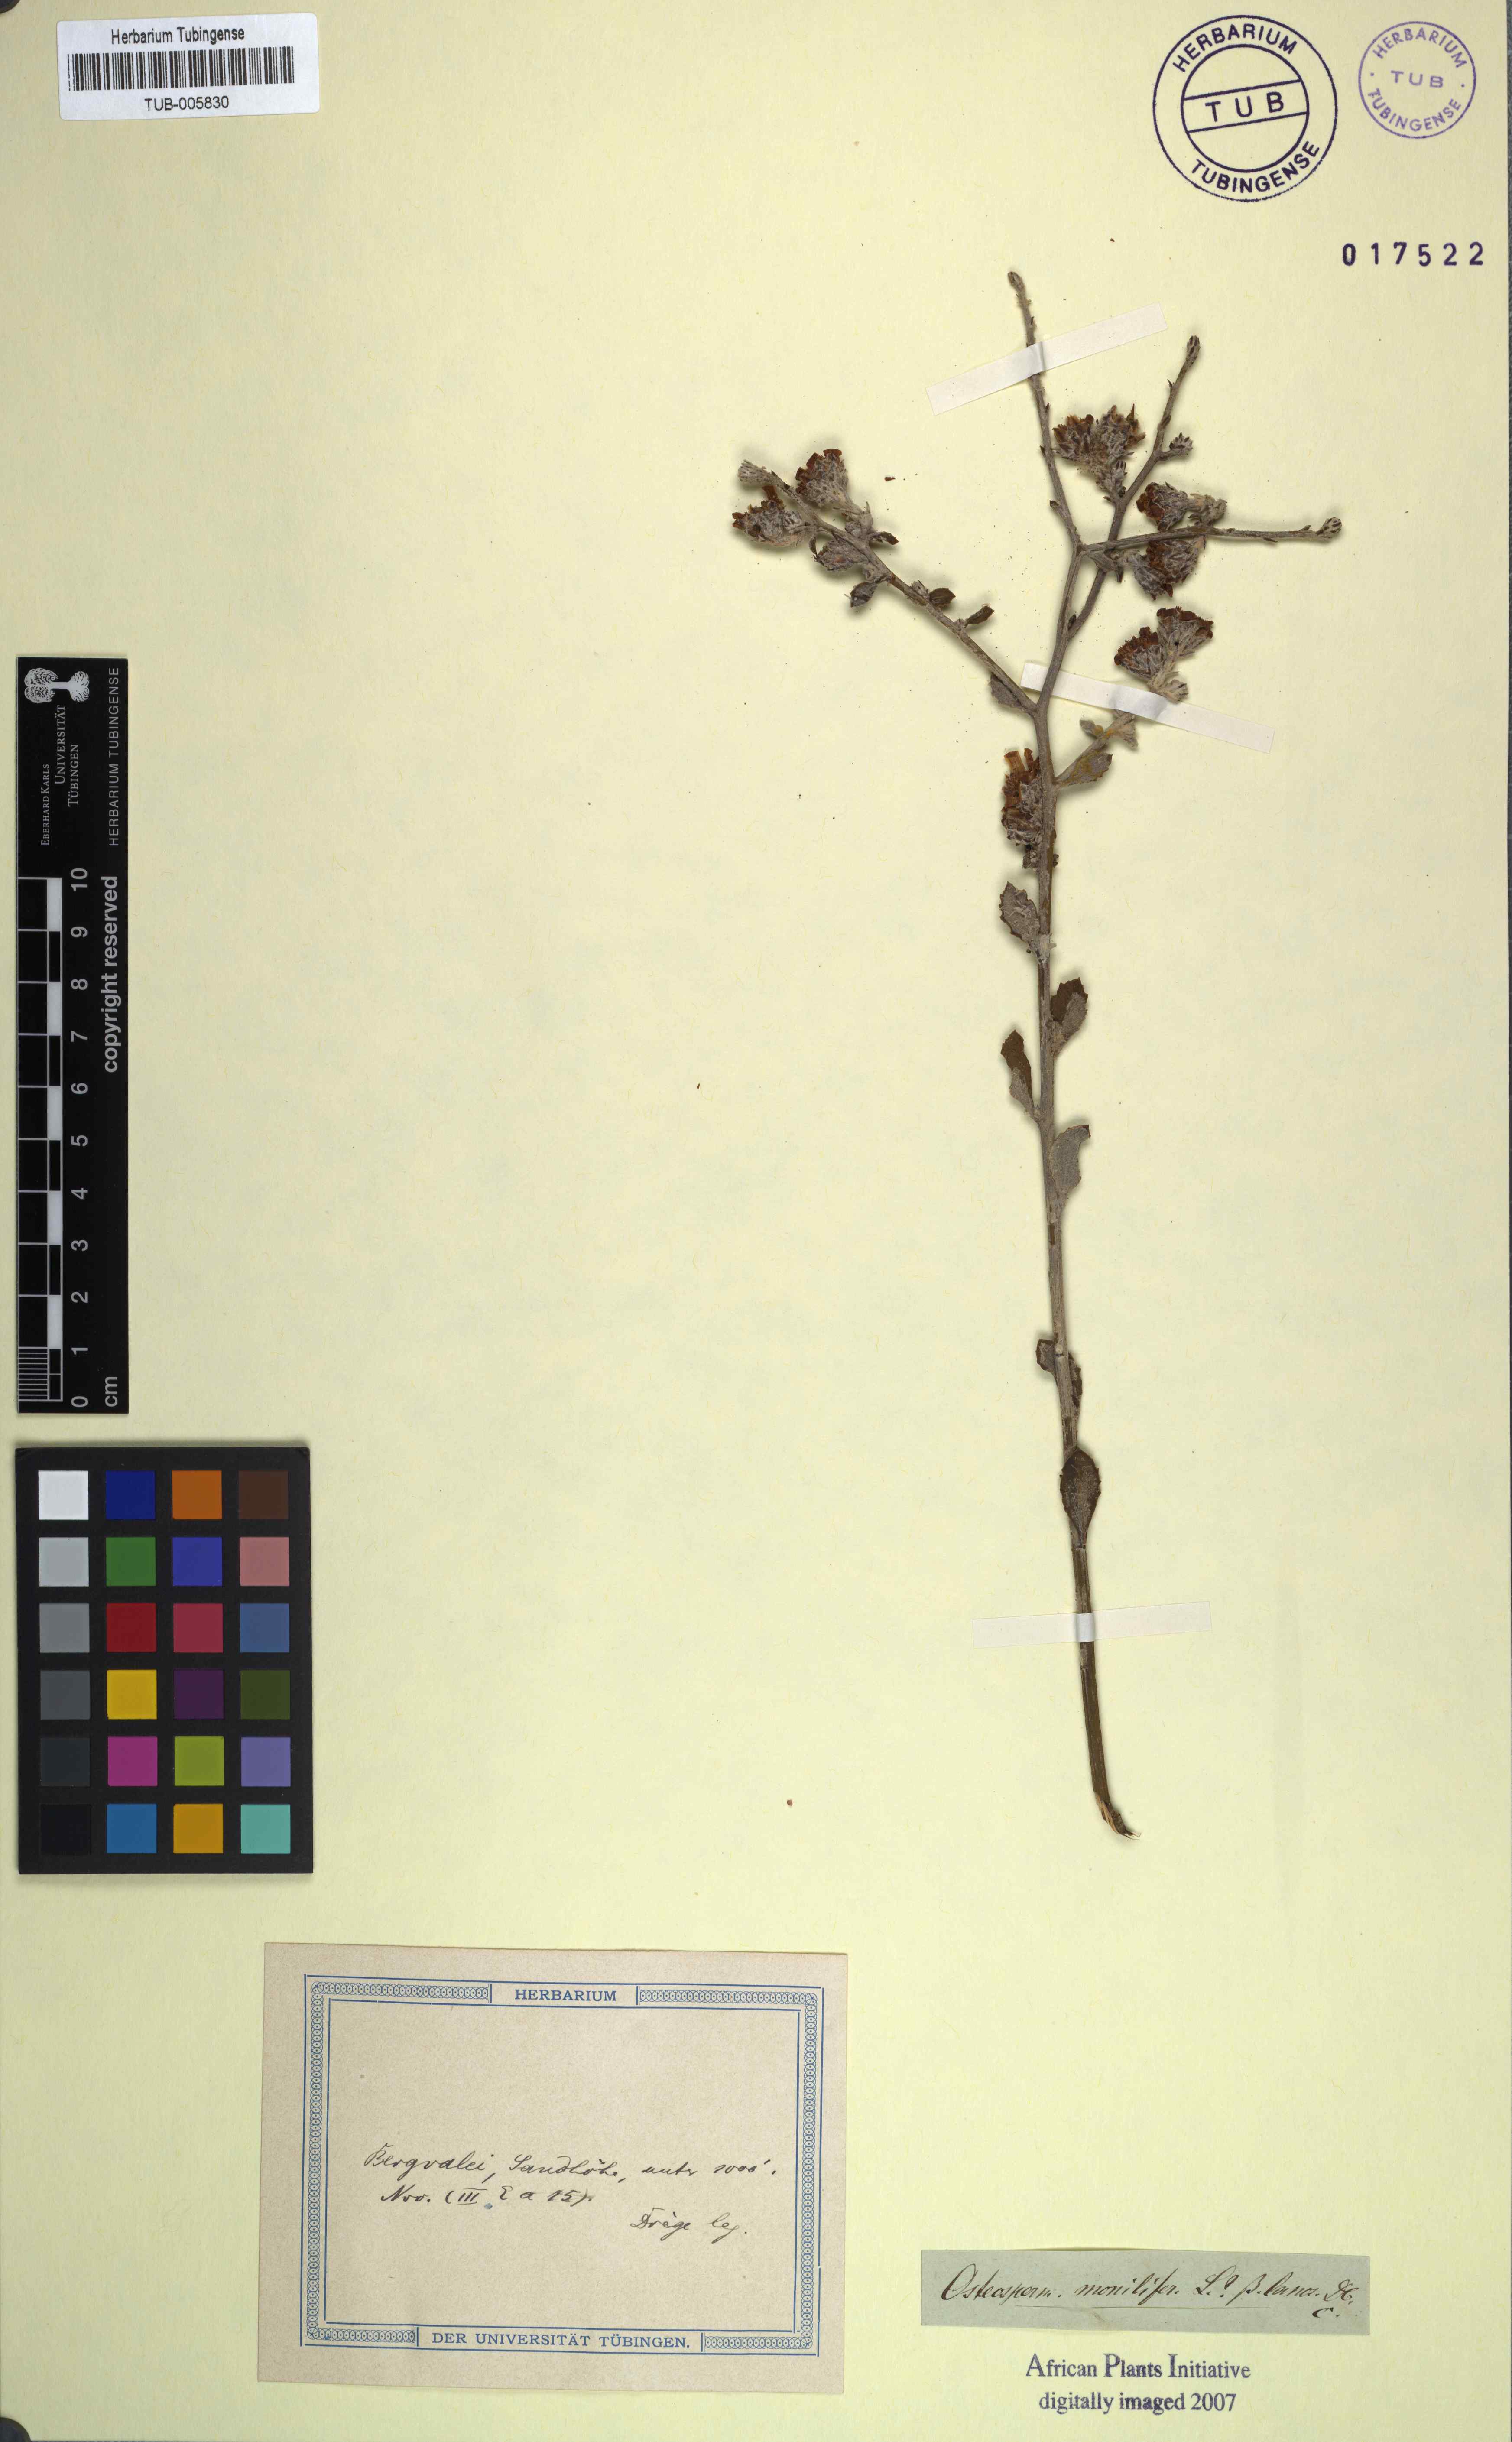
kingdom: Plantae
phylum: Tracheophyta
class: Magnoliopsida
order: Asterales
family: Asteraceae
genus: Osteospermum
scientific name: Osteospermum moniliferum
